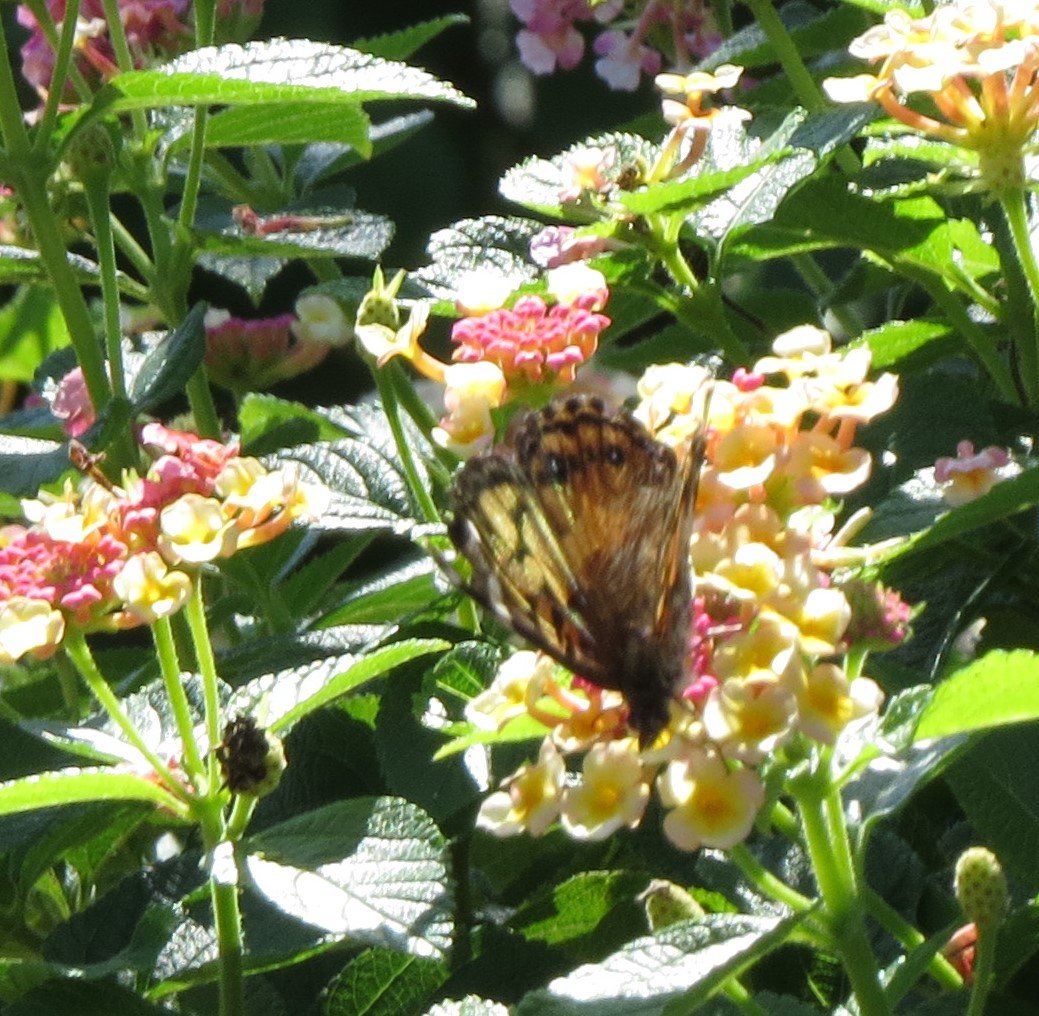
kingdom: Animalia
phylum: Arthropoda
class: Insecta
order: Lepidoptera
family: Nymphalidae
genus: Vanessa
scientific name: Vanessa cardui
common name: Painted Lady
